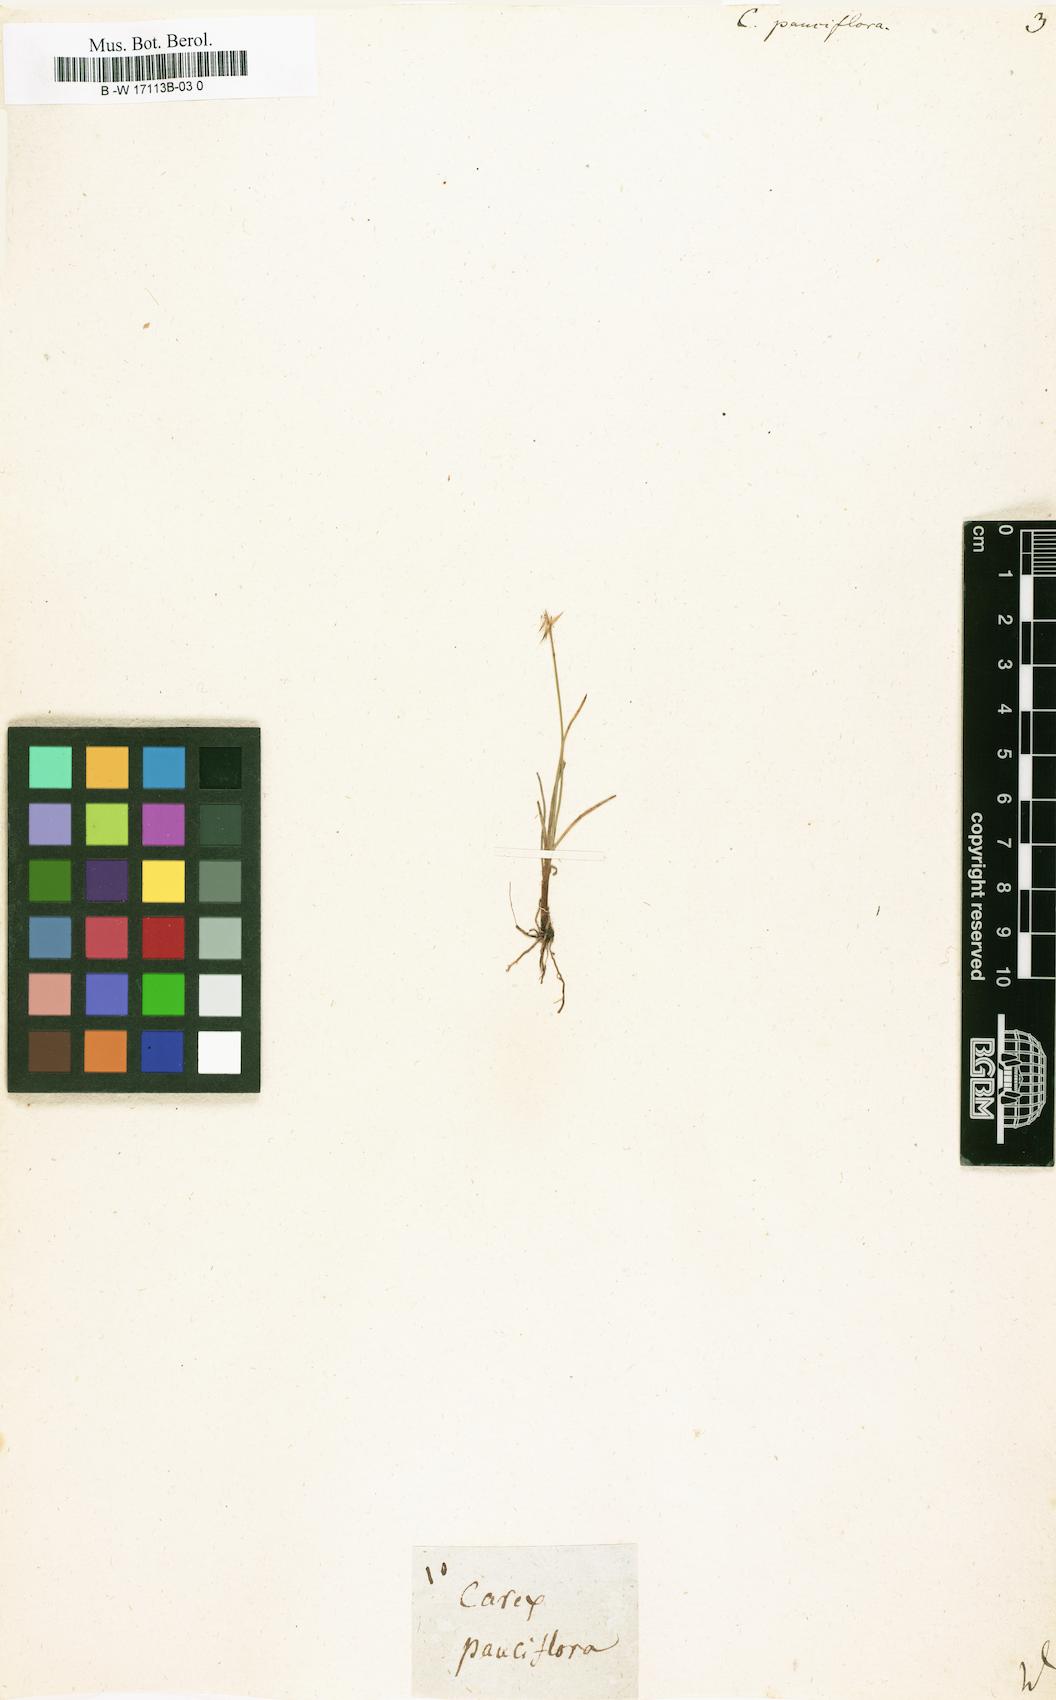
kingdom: Plantae
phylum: Tracheophyta
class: Liliopsida
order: Poales
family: Cyperaceae
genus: Carex
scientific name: Carex pauciflora
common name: Few-flowered sedge
